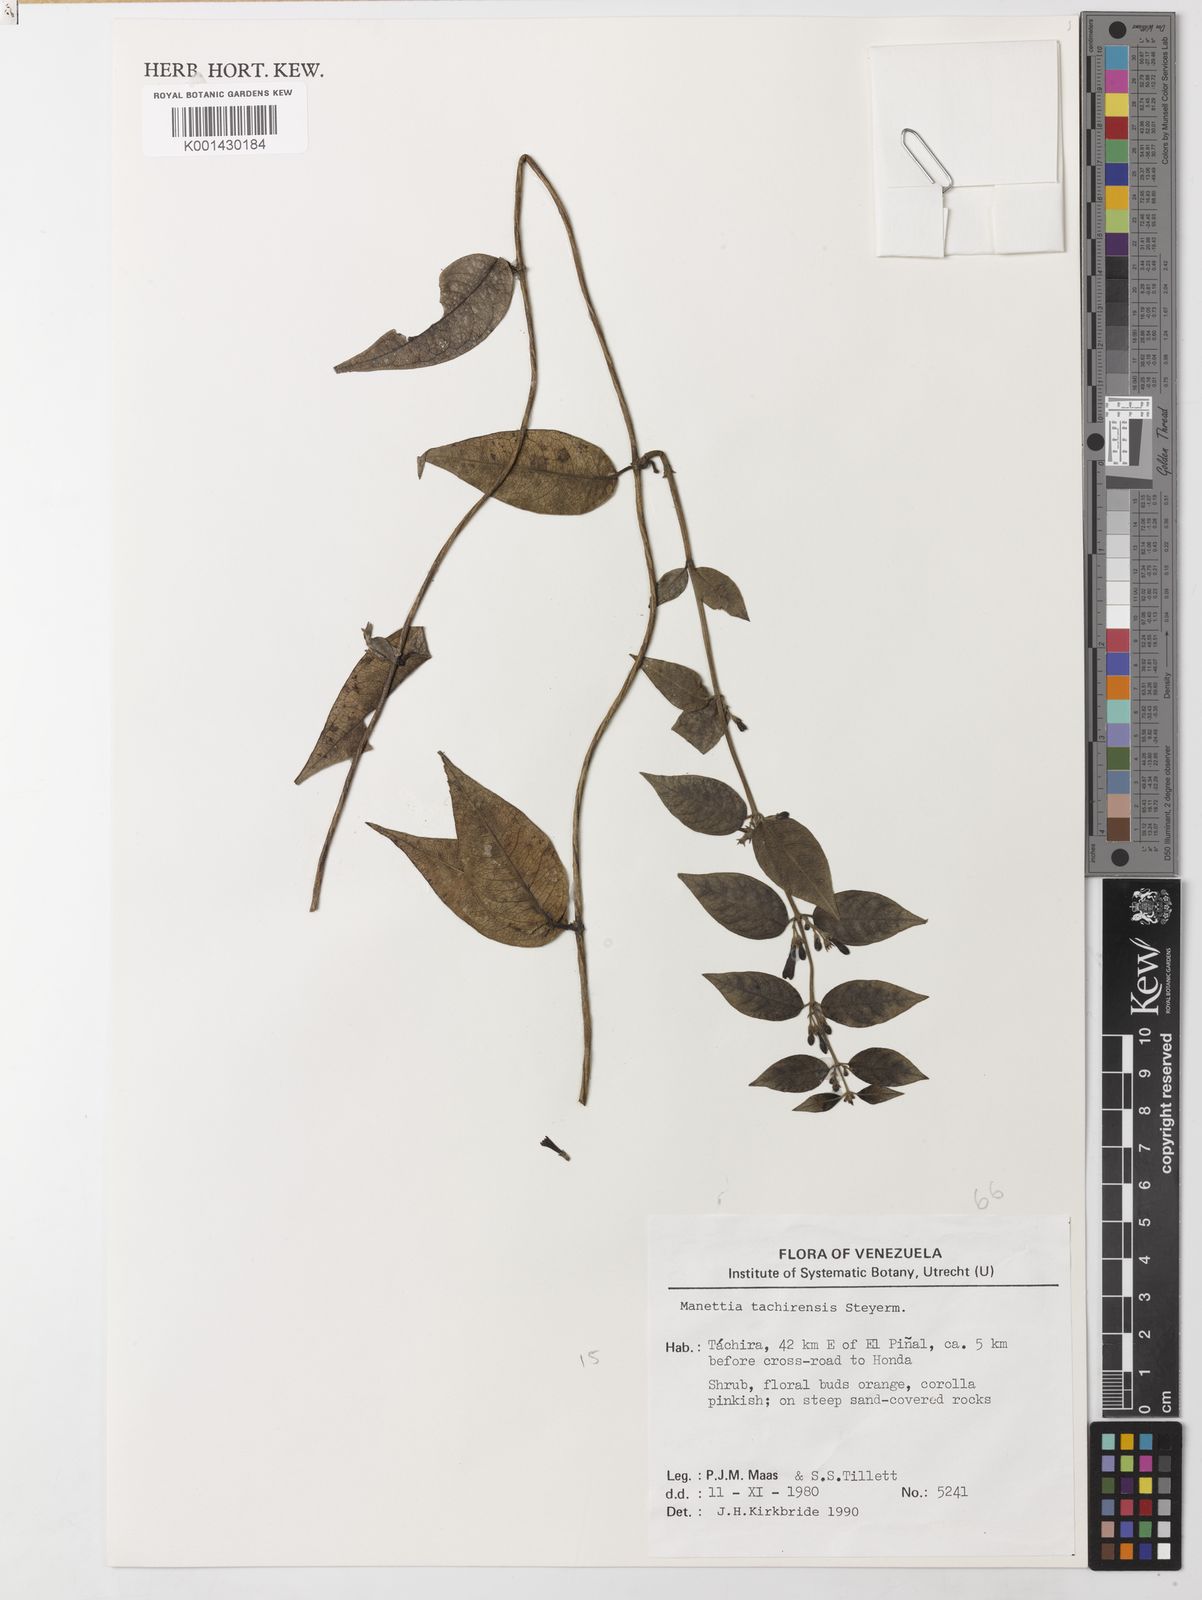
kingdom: Plantae
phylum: Tracheophyta
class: Magnoliopsida
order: Gentianales
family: Rubiaceae
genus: Manettia
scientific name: Manettia tachirensis
